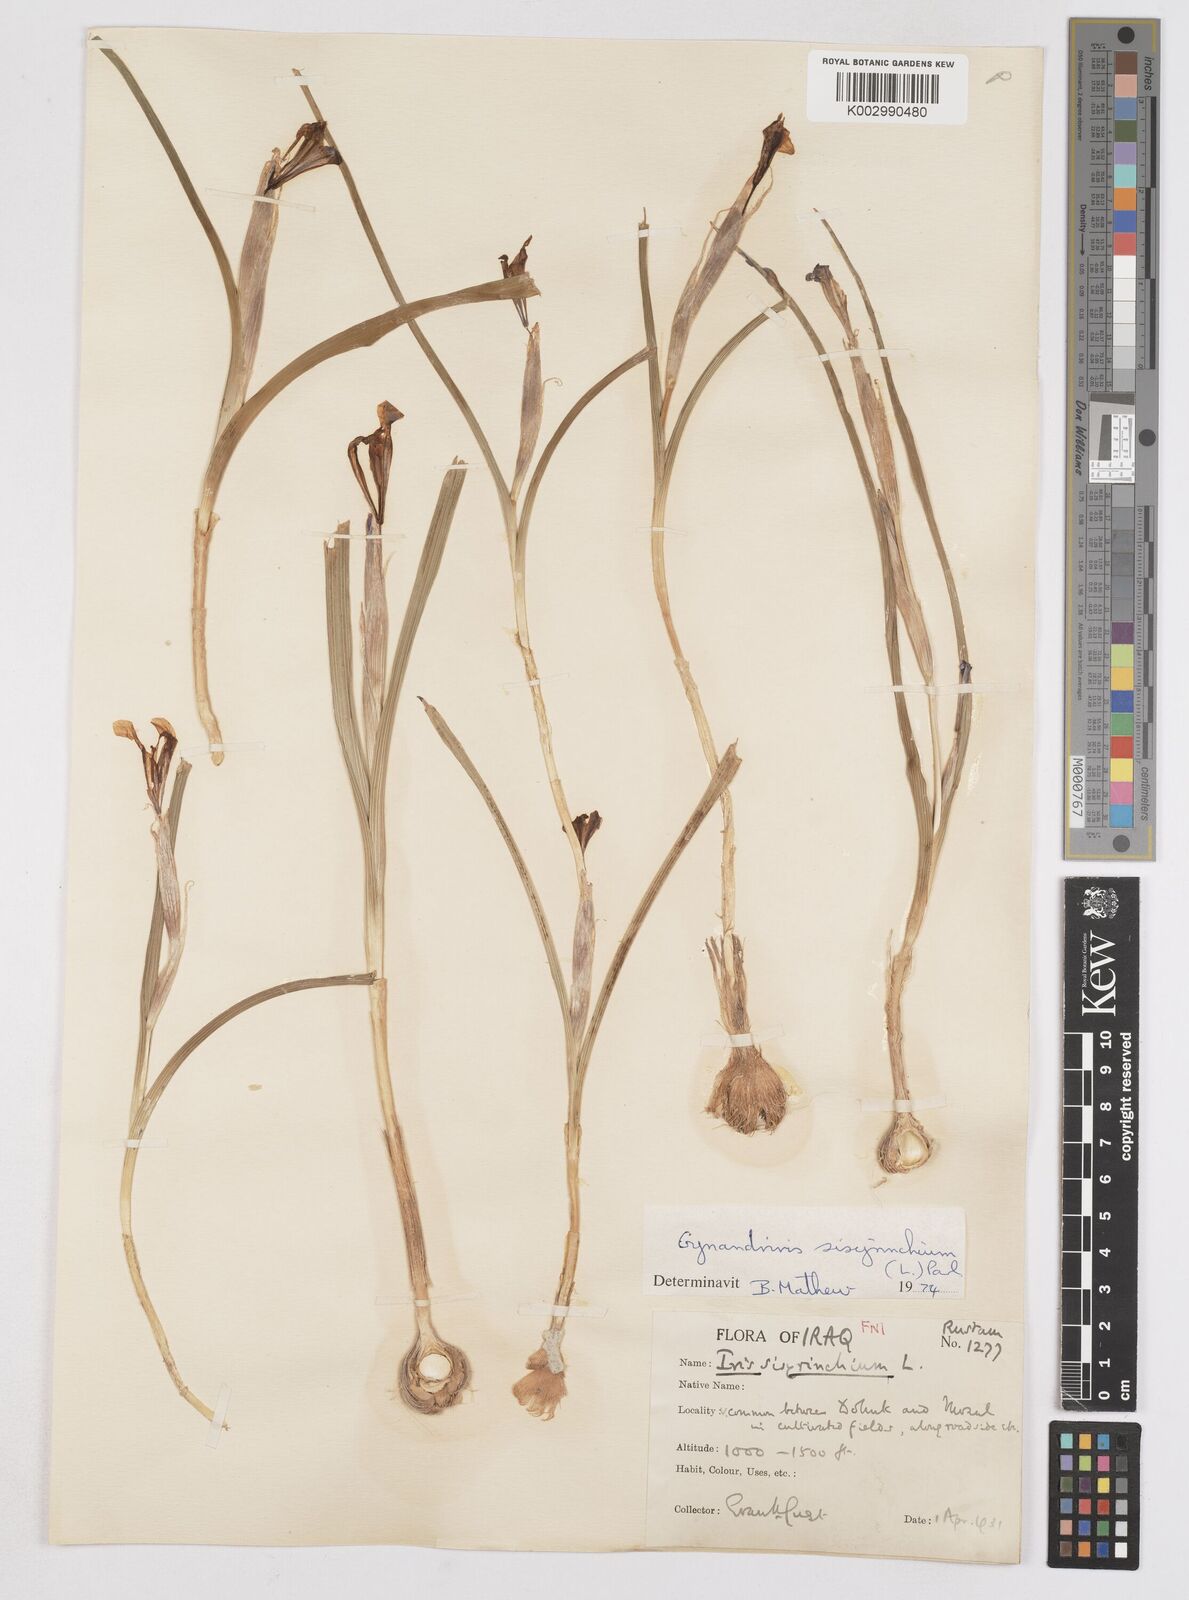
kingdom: Plantae
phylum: Tracheophyta
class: Liliopsida
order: Asparagales
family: Iridaceae
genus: Moraea
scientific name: Moraea sisyrinchium
